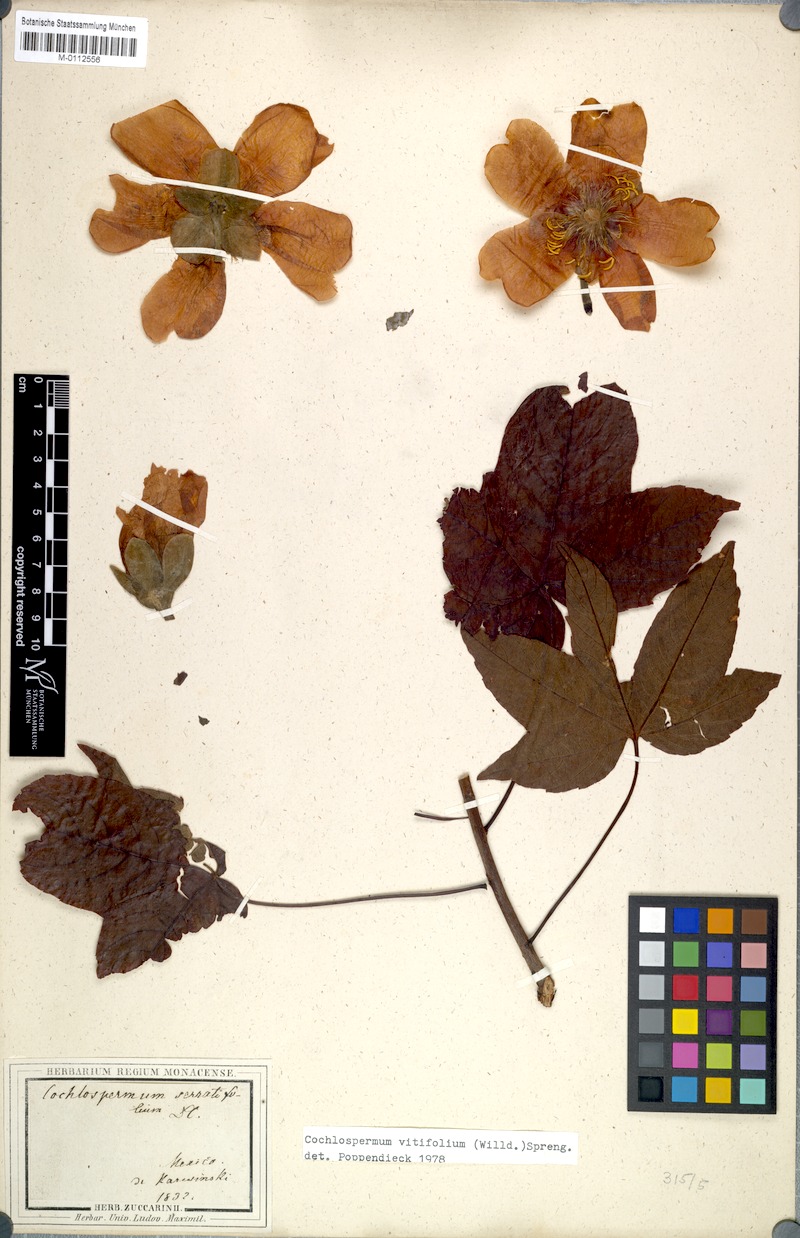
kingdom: Plantae
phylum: Tracheophyta
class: Magnoliopsida
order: Malvales
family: Cochlospermaceae
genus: Cochlospermum
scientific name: Cochlospermum vitifolium
